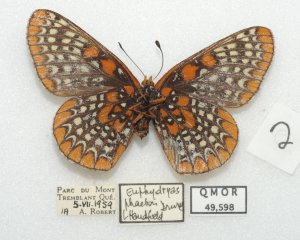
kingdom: Animalia
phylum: Arthropoda
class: Insecta
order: Lepidoptera
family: Nymphalidae
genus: Euphydryas
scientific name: Euphydryas phaeton
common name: Baltimore Checkerspot
